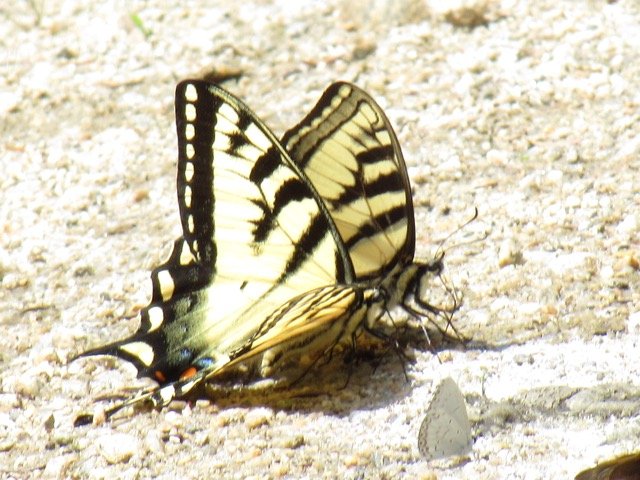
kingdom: Animalia
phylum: Arthropoda
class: Insecta
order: Lepidoptera
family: Papilionidae
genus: Pterourus
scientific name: Pterourus
